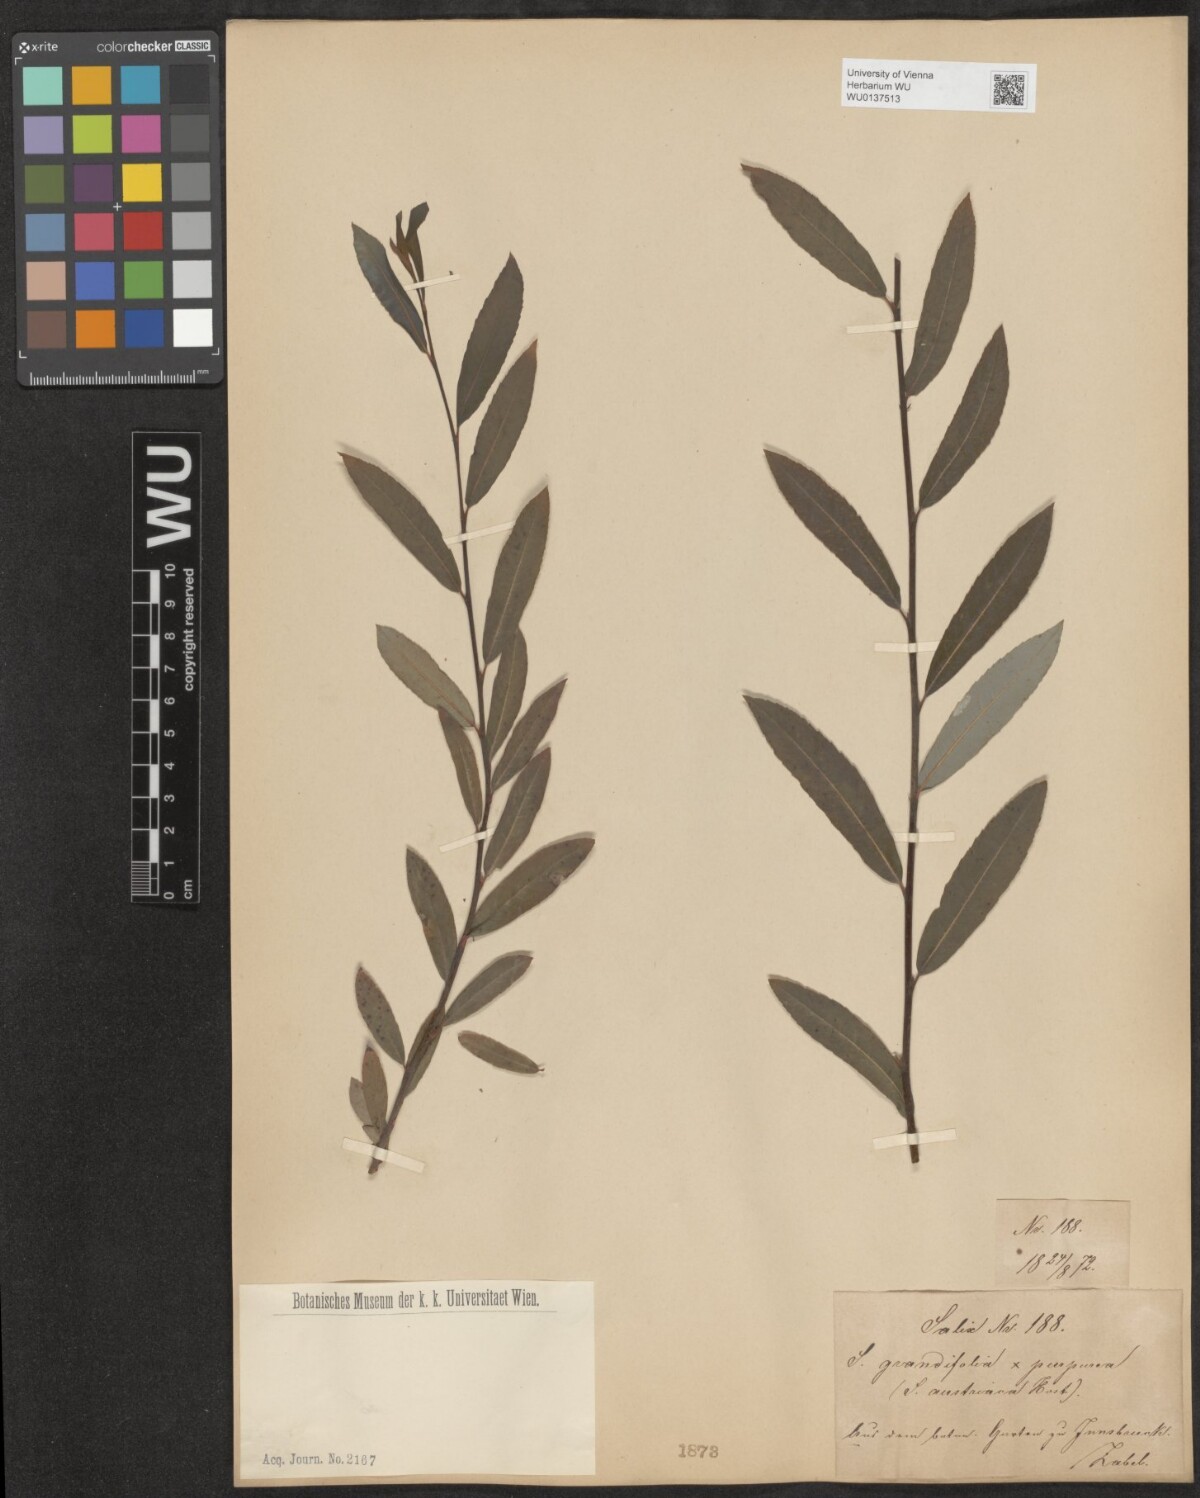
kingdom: Plantae
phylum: Tracheophyta
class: Magnoliopsida
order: Malpighiales
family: Salicaceae
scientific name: Salicaceae
